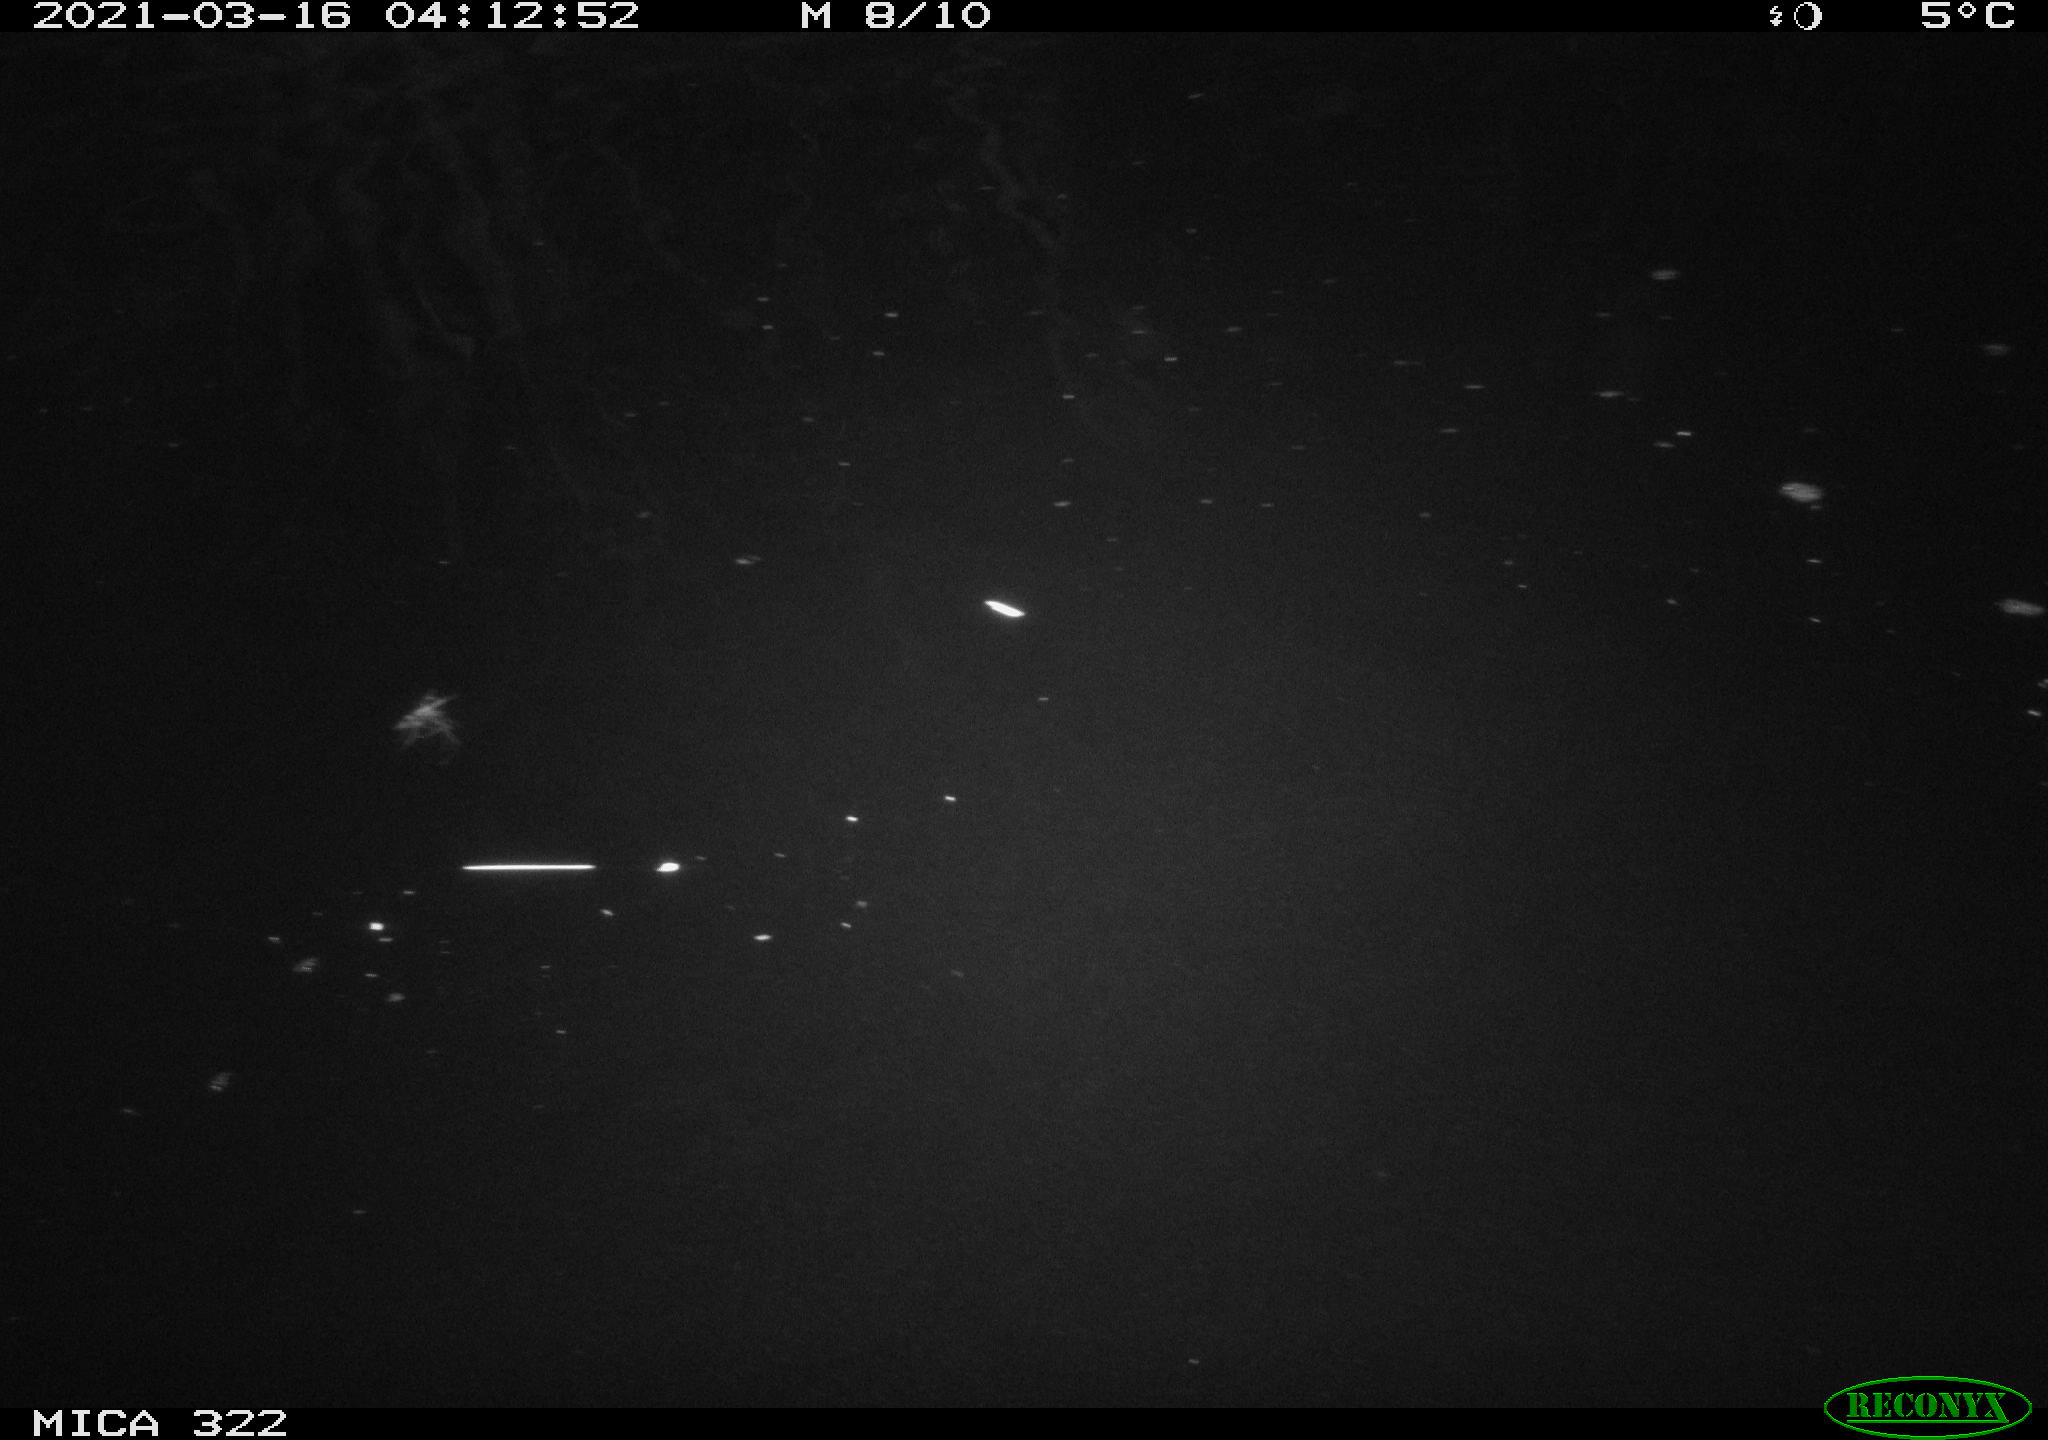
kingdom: Animalia
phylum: Chordata
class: Aves
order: Anseriformes
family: Anatidae
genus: Anas
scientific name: Anas platyrhynchos
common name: Mallard
